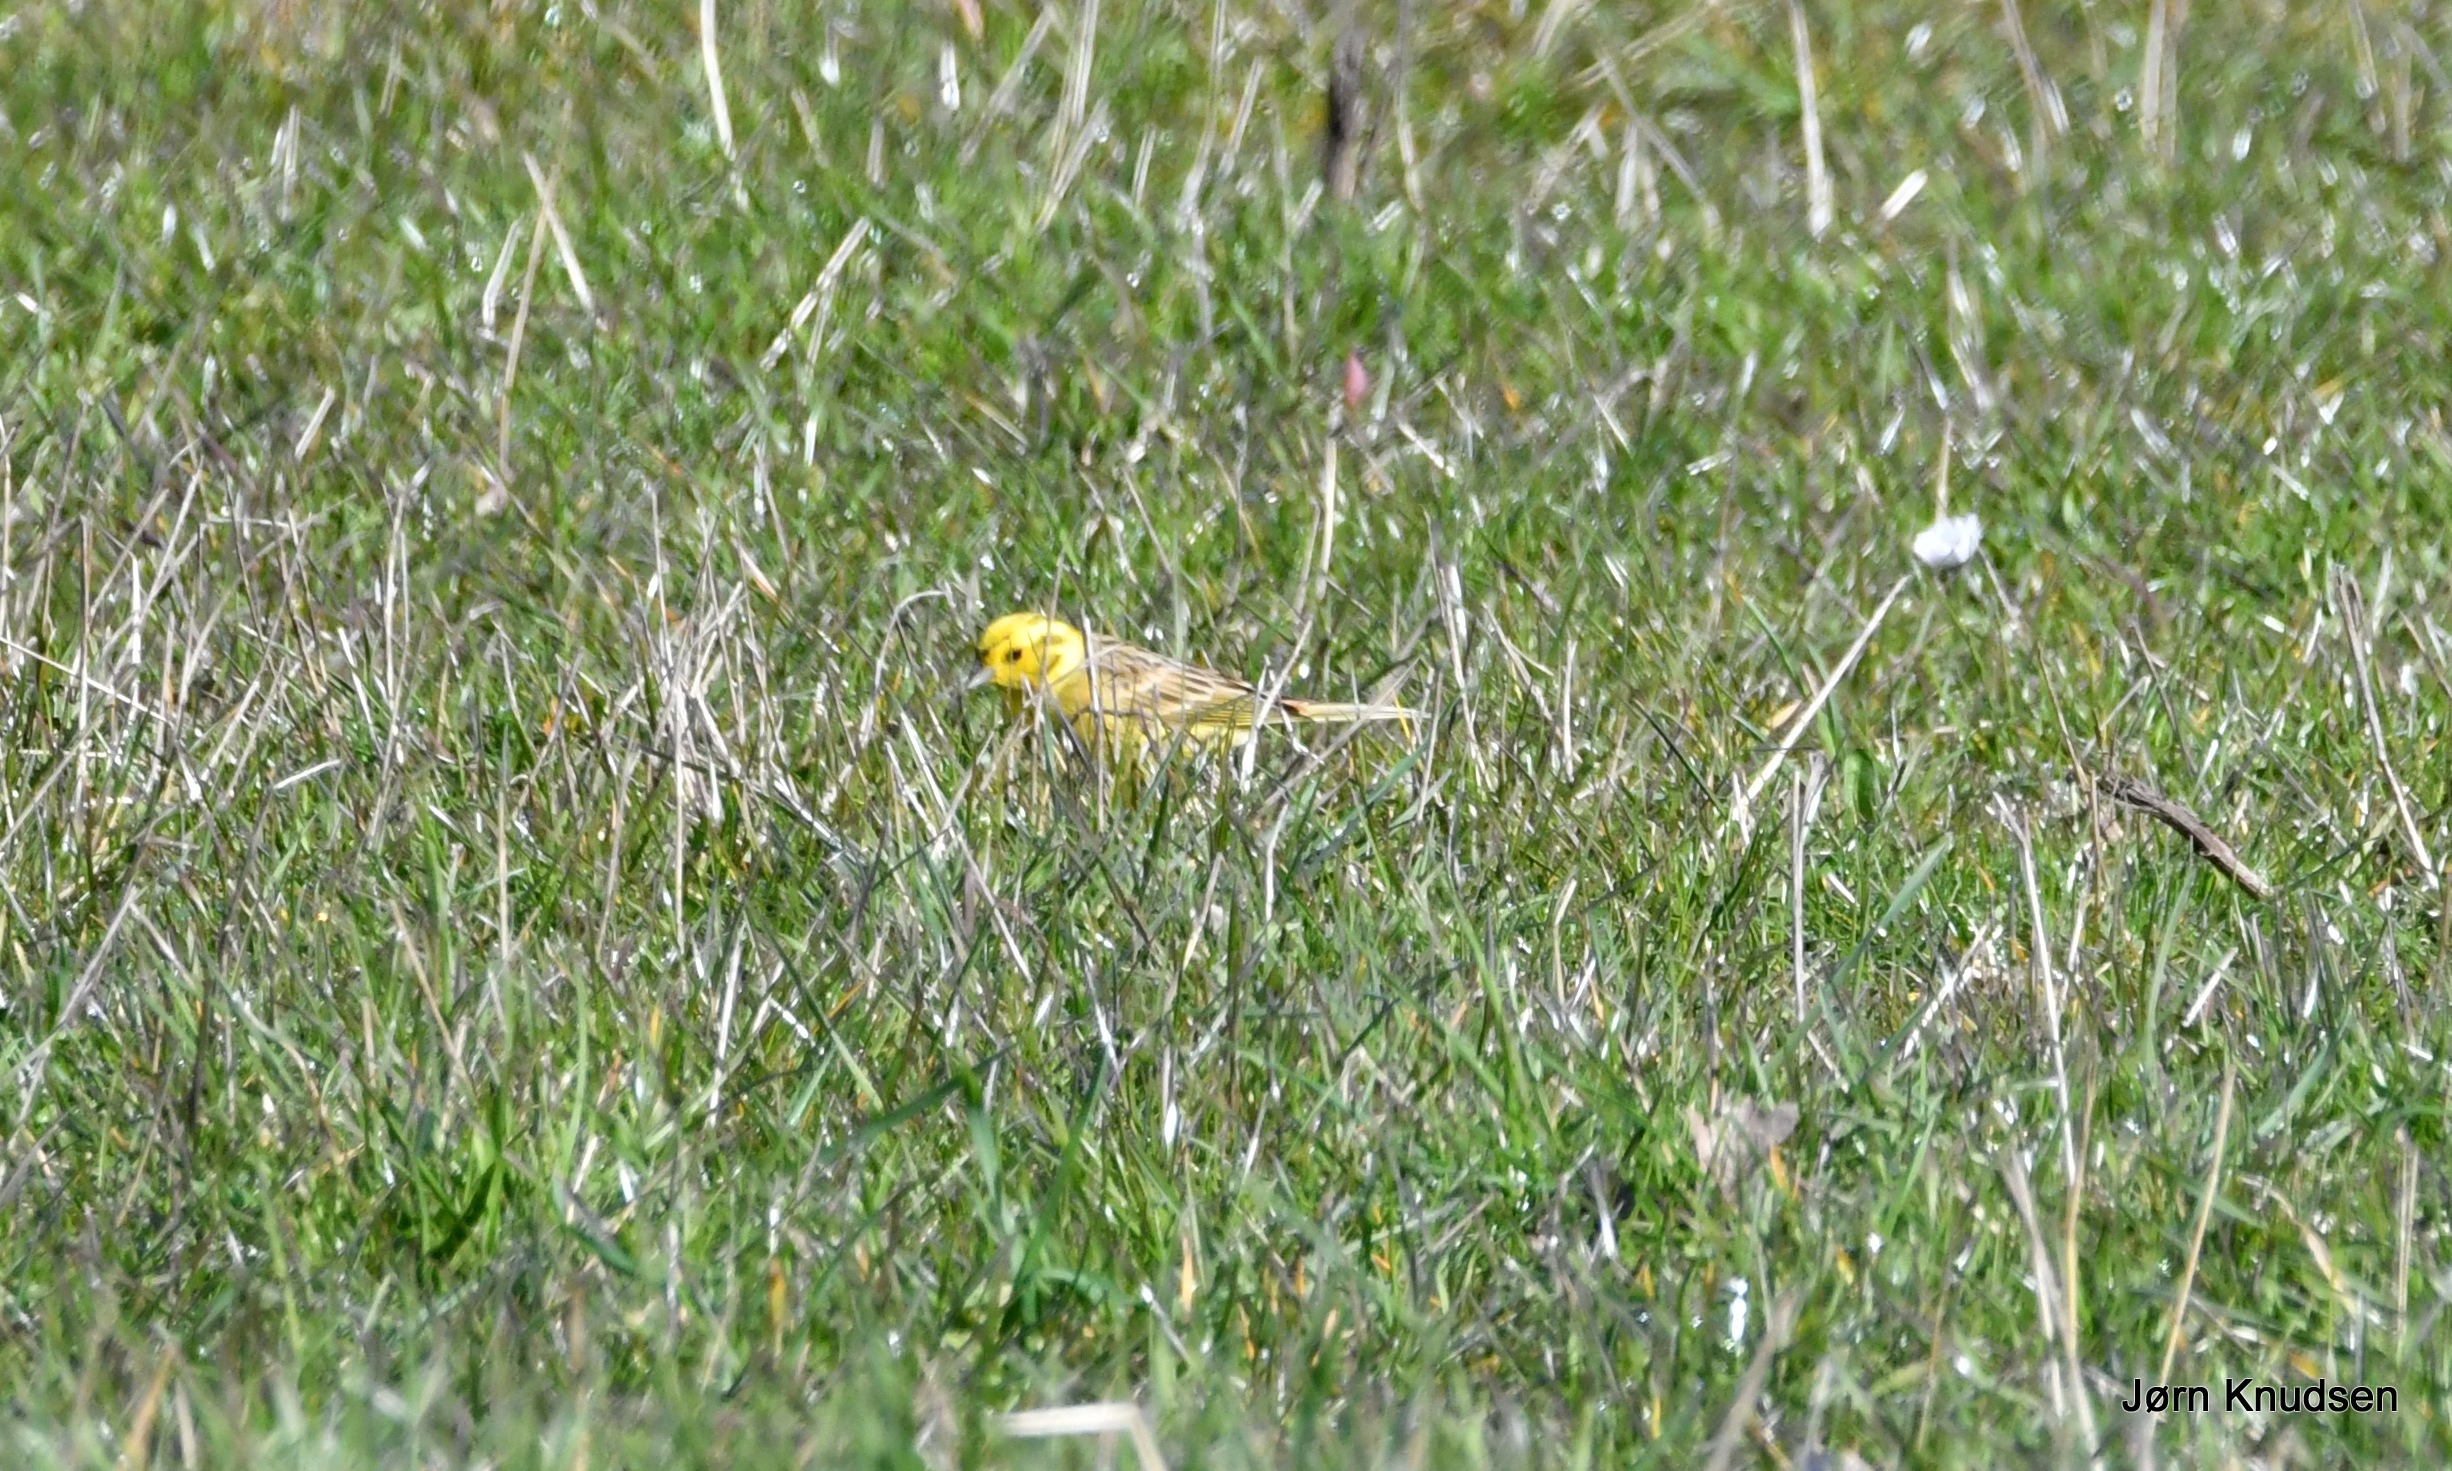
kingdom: Animalia
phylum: Chordata
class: Aves
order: Passeriformes
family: Emberizidae
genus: Emberiza
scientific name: Emberiza citrinella
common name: Gulspurv
